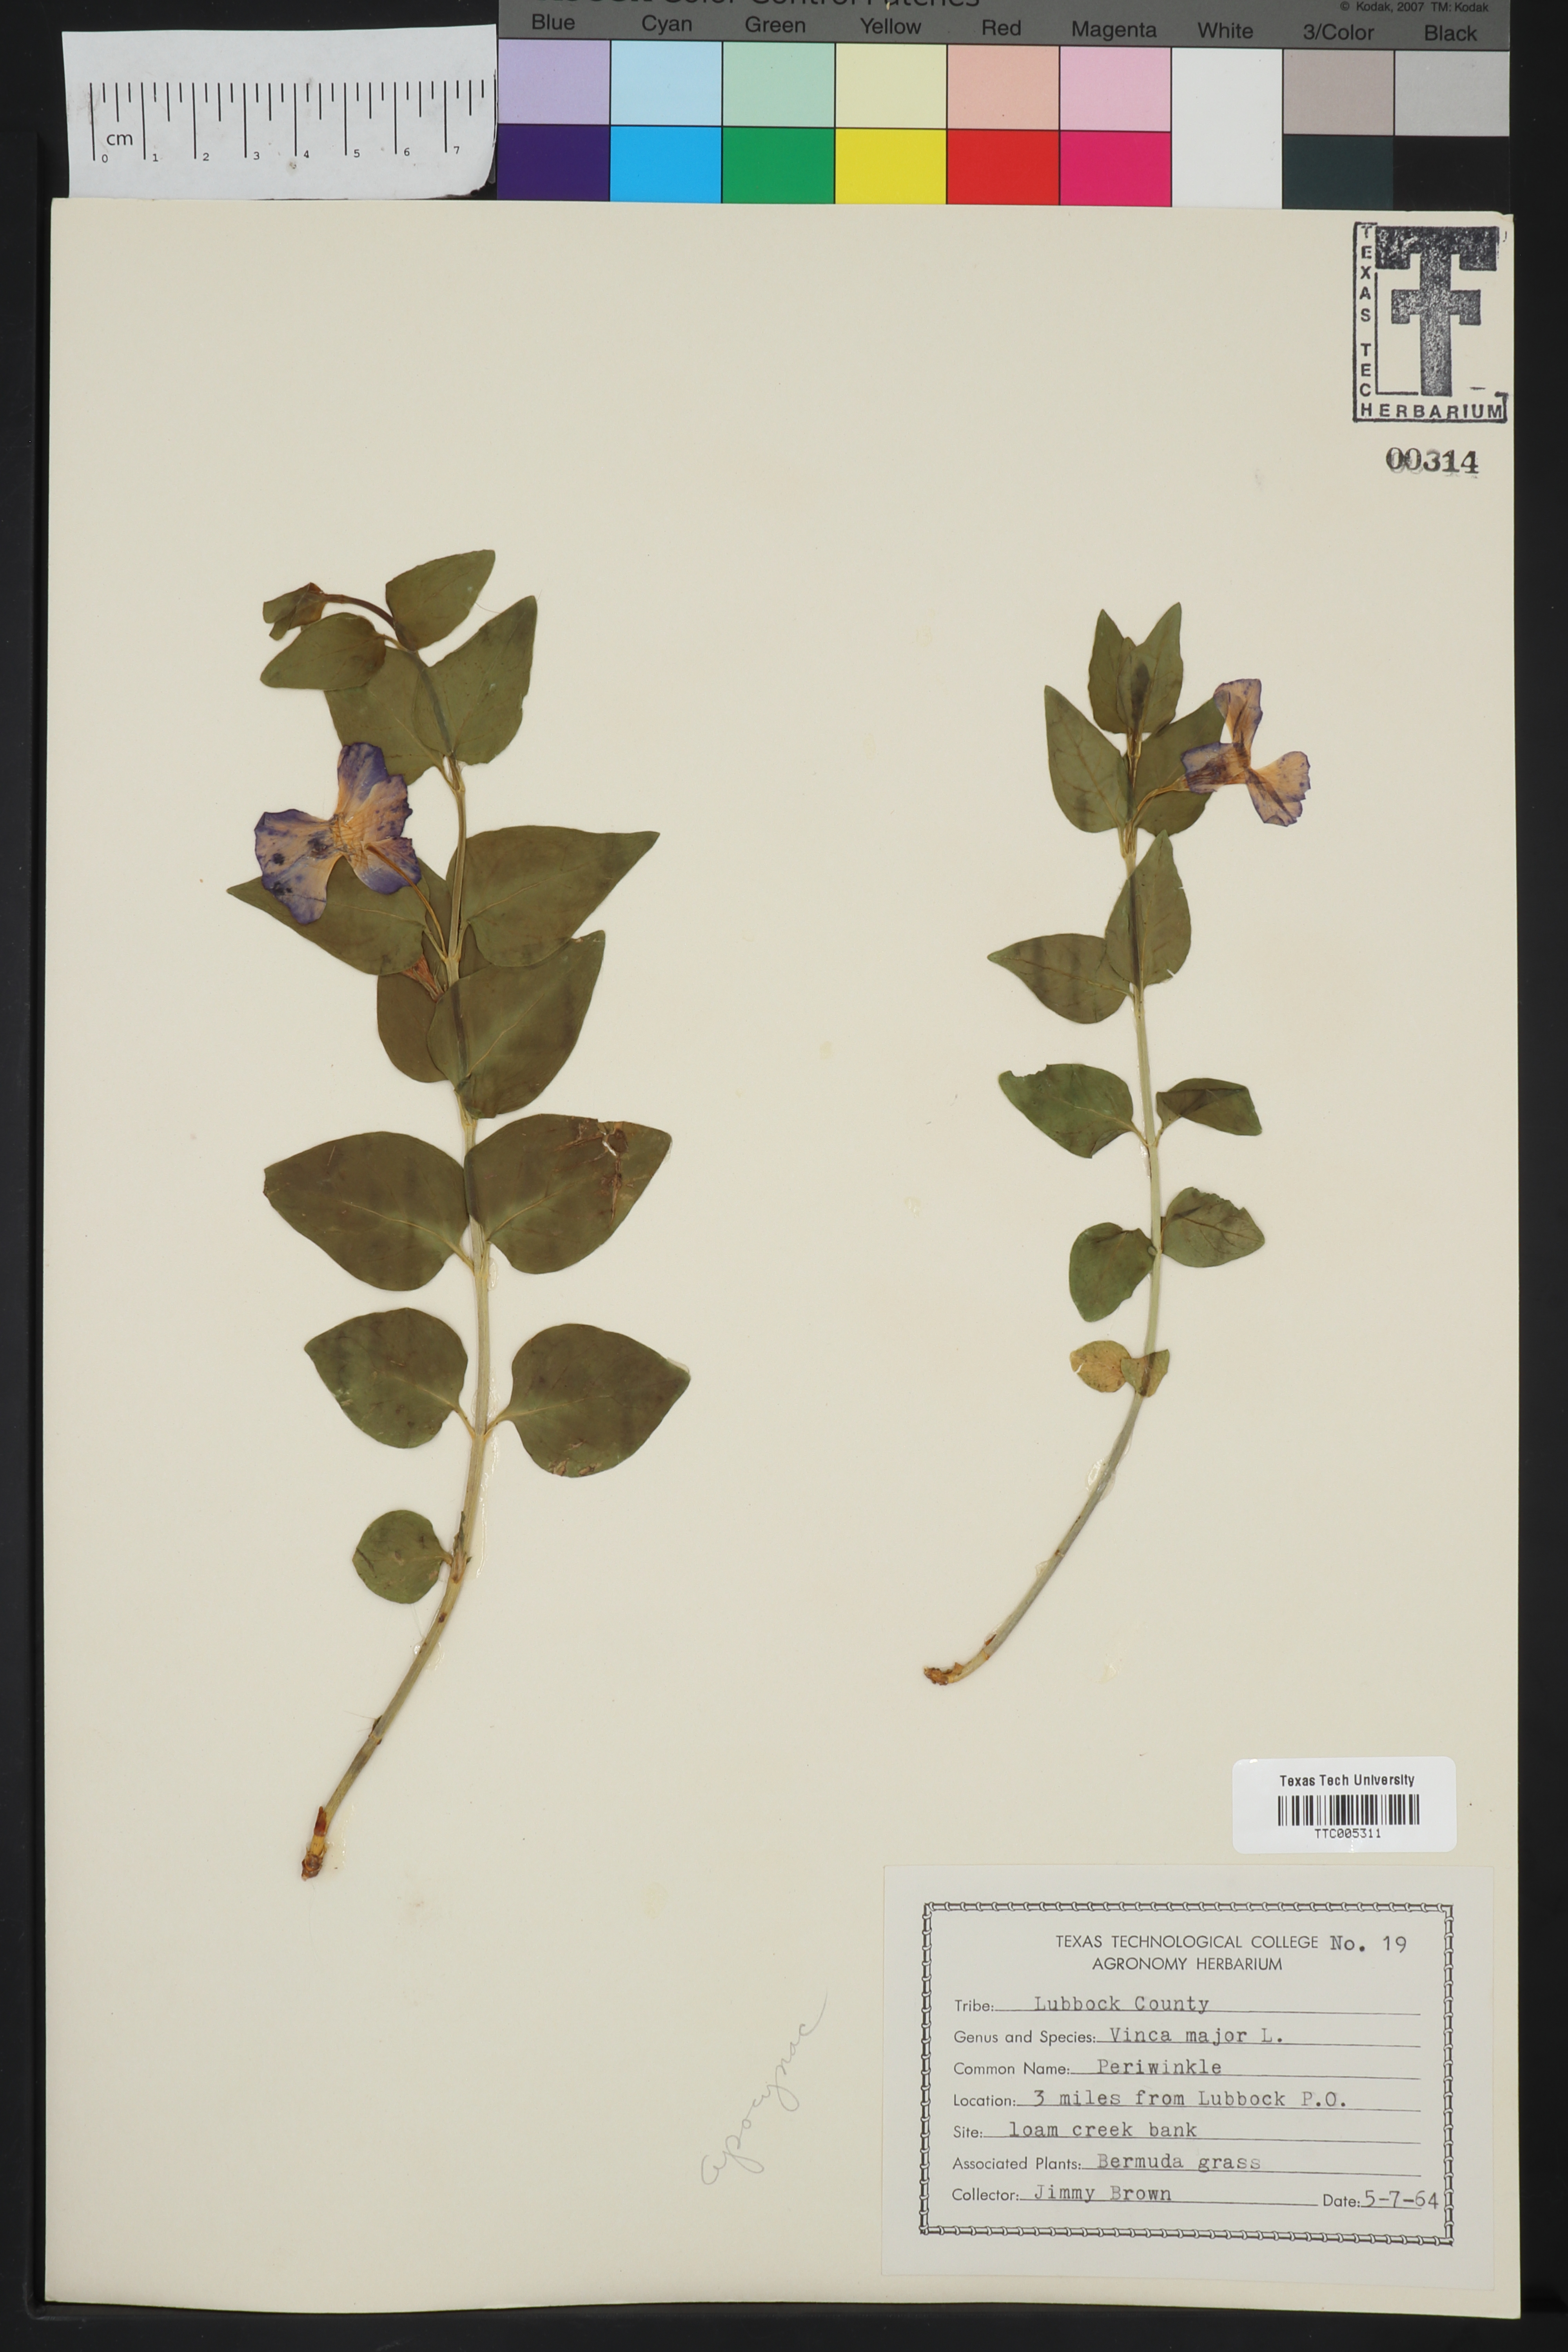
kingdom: Plantae
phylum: Tracheophyta
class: Magnoliopsida
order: Gentianales
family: Apocynaceae
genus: Vinca
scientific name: Vinca major
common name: Greater periwinkle
